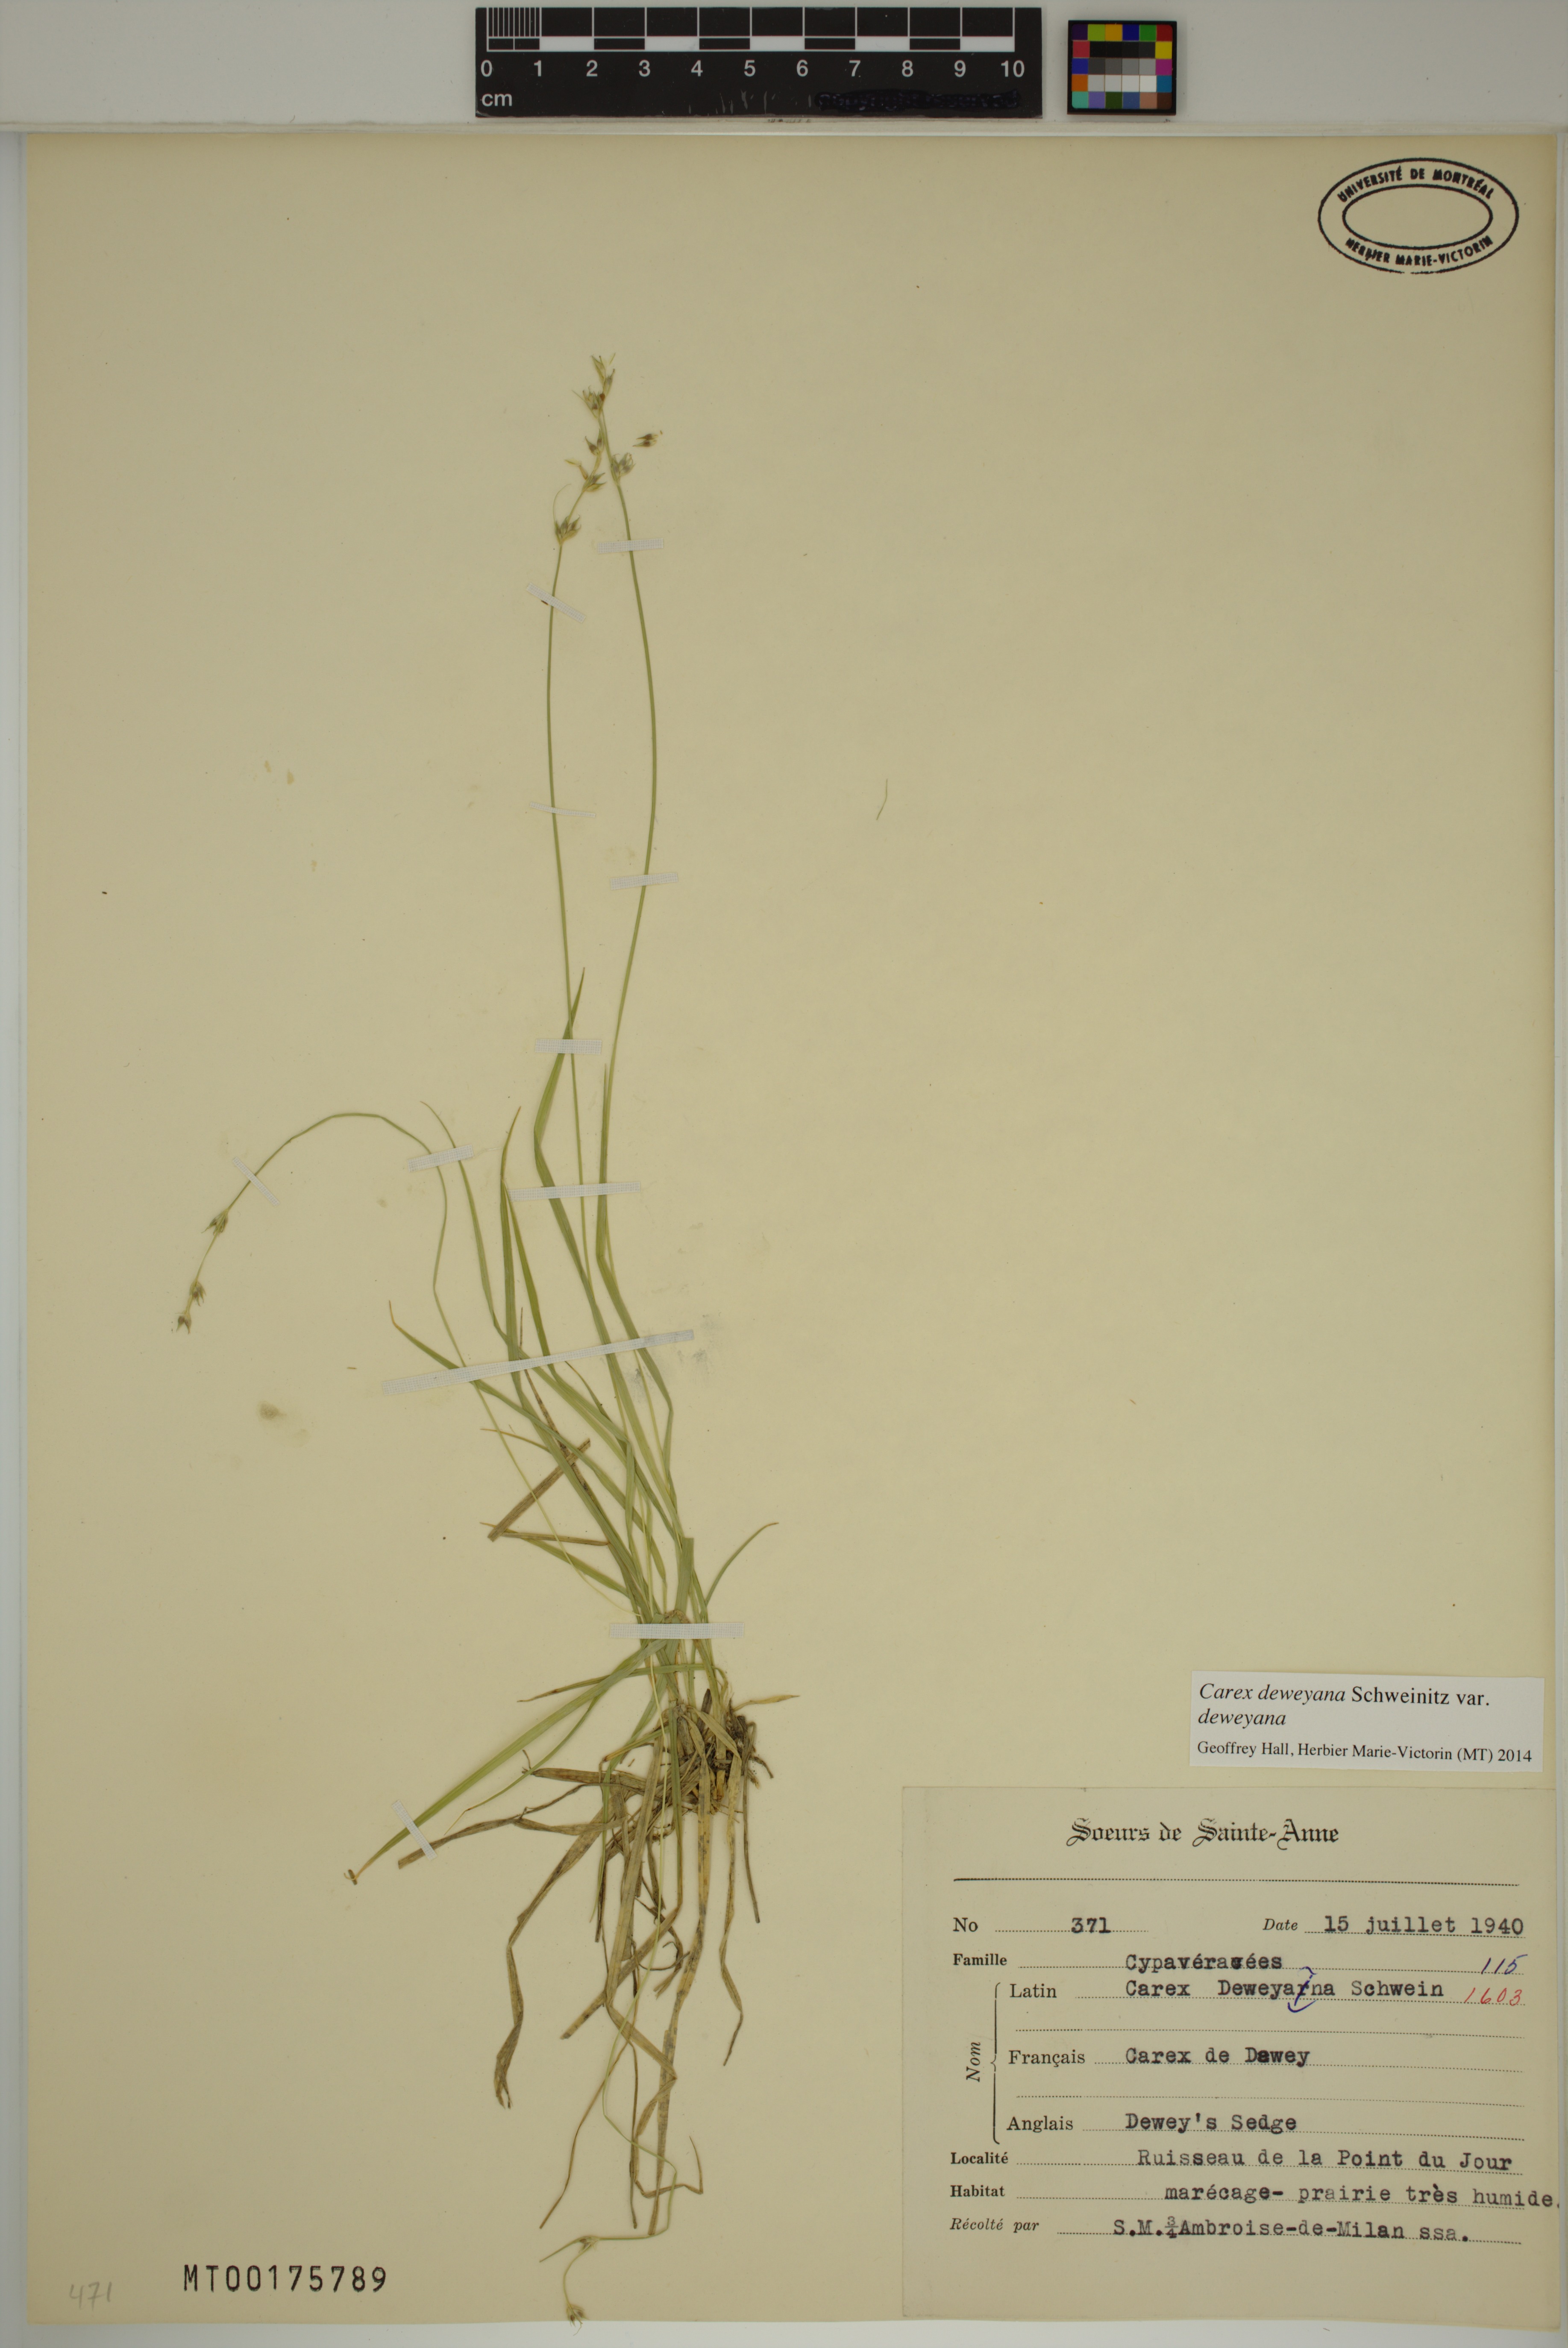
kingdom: Plantae
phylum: Tracheophyta
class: Liliopsida
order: Poales
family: Cyperaceae
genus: Carex
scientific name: Carex deweyana
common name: Dewey's sedge
